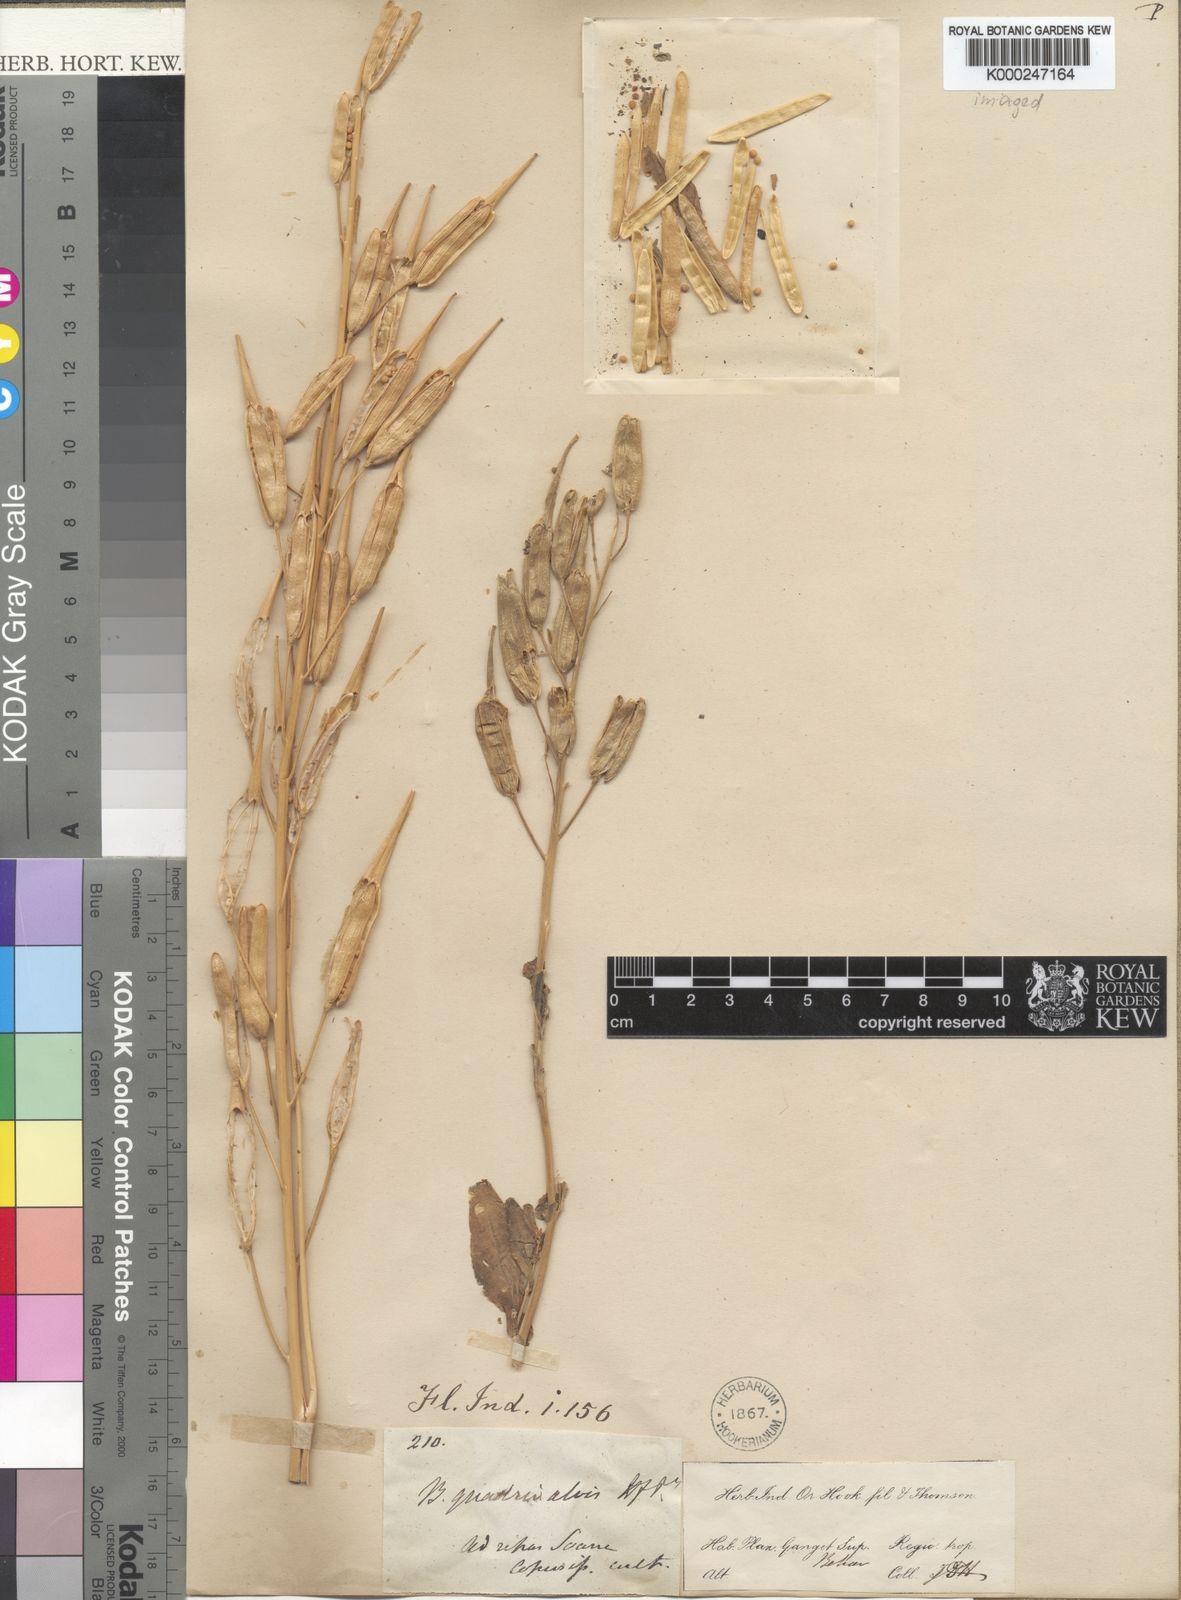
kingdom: Plantae
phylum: Tracheophyta
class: Magnoliopsida
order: Brassicales
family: Brassicaceae
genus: Brassica
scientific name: Brassica napus
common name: Rape
